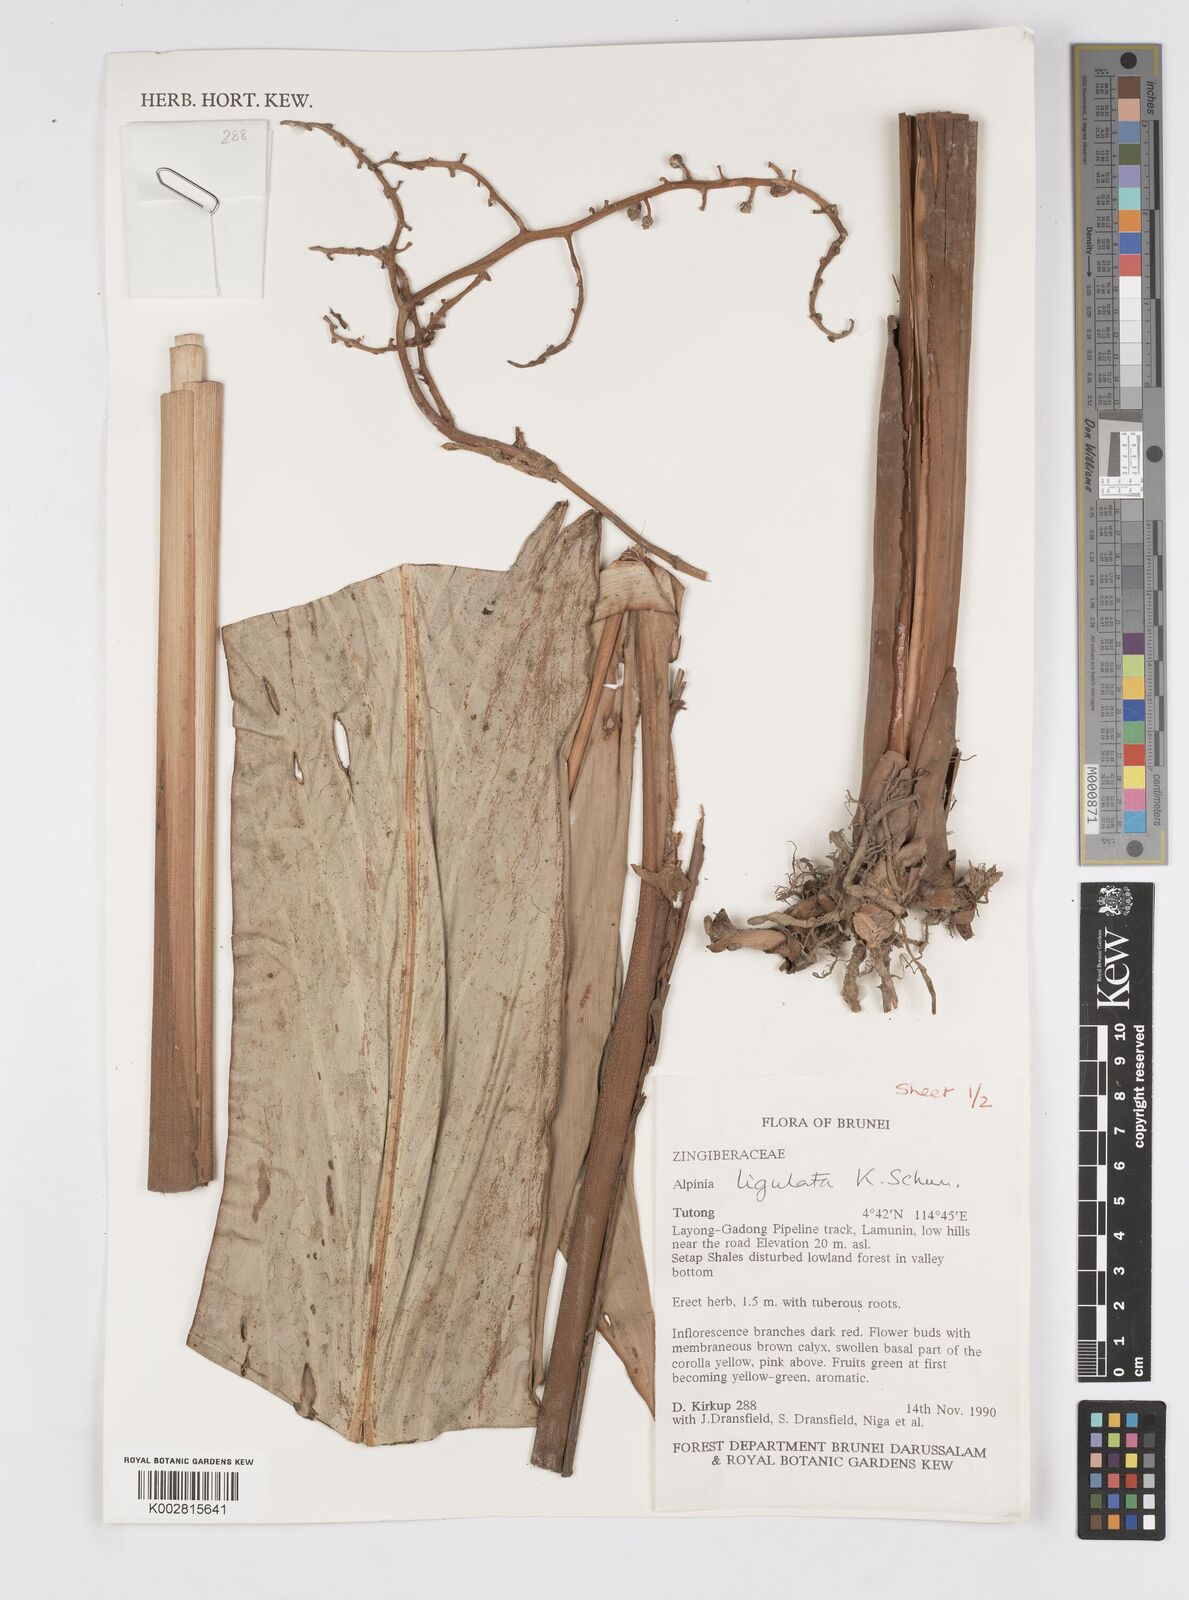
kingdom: Plantae
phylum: Tracheophyta
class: Liliopsida
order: Zingiberales
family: Zingiberaceae
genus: Alpinia
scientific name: Alpinia ligulata
